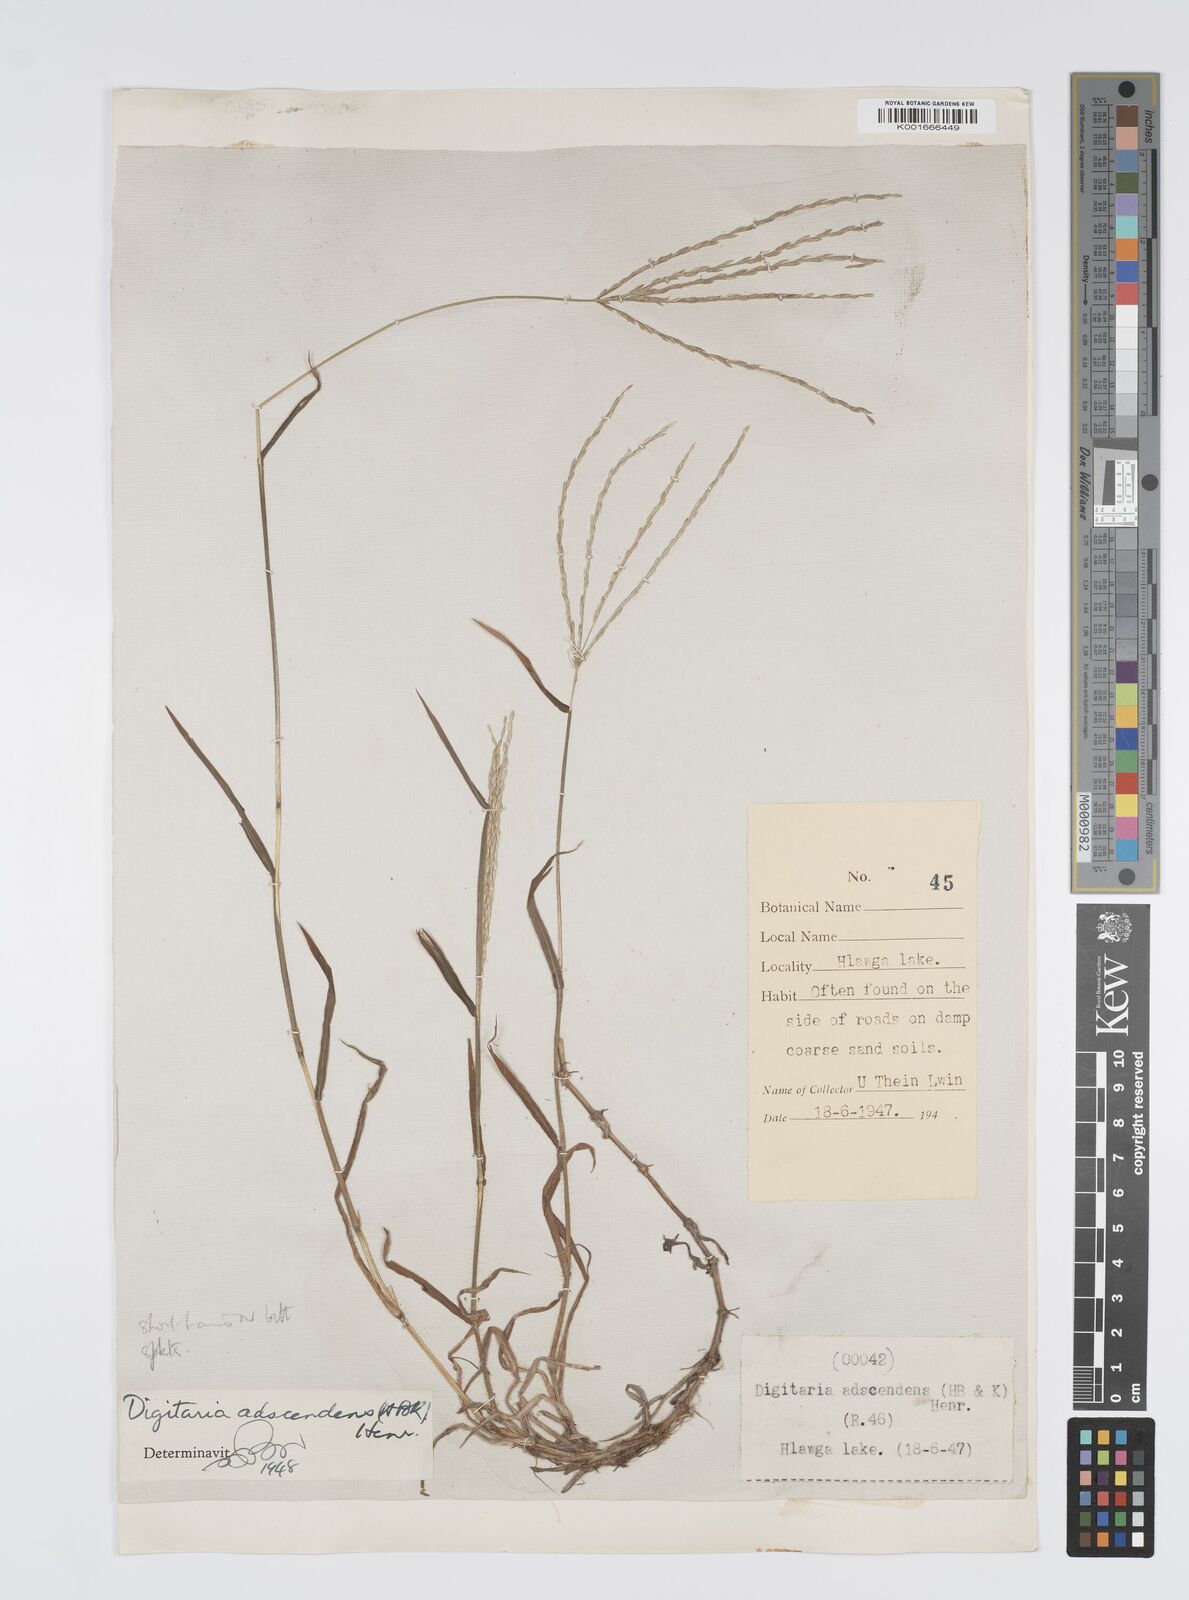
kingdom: Plantae
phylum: Tracheophyta
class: Liliopsida
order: Poales
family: Poaceae
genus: Digitaria
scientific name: Digitaria ciliaris
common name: Tropical finger-grass
